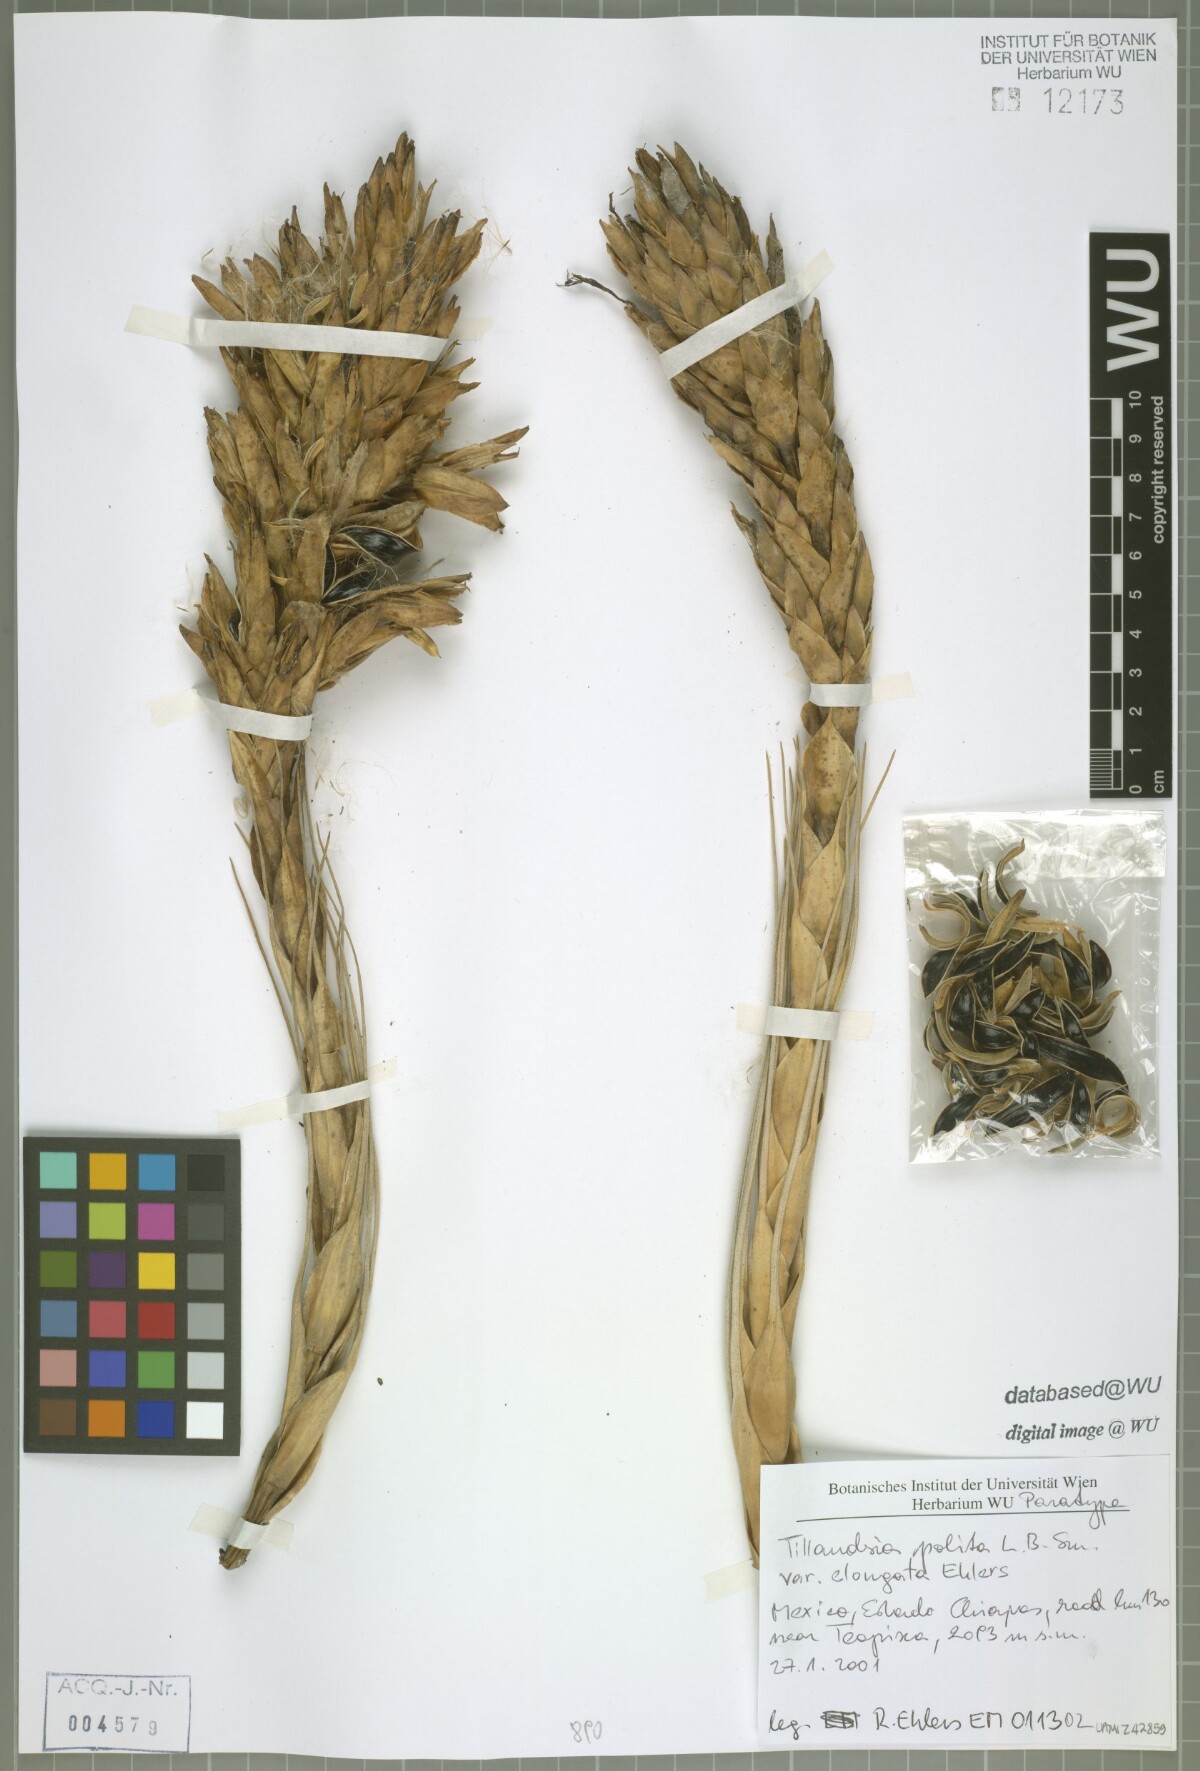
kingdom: Plantae
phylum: Tracheophyta
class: Liliopsida
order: Poales
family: Bromeliaceae
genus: Tillandsia
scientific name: Tillandsia polita
